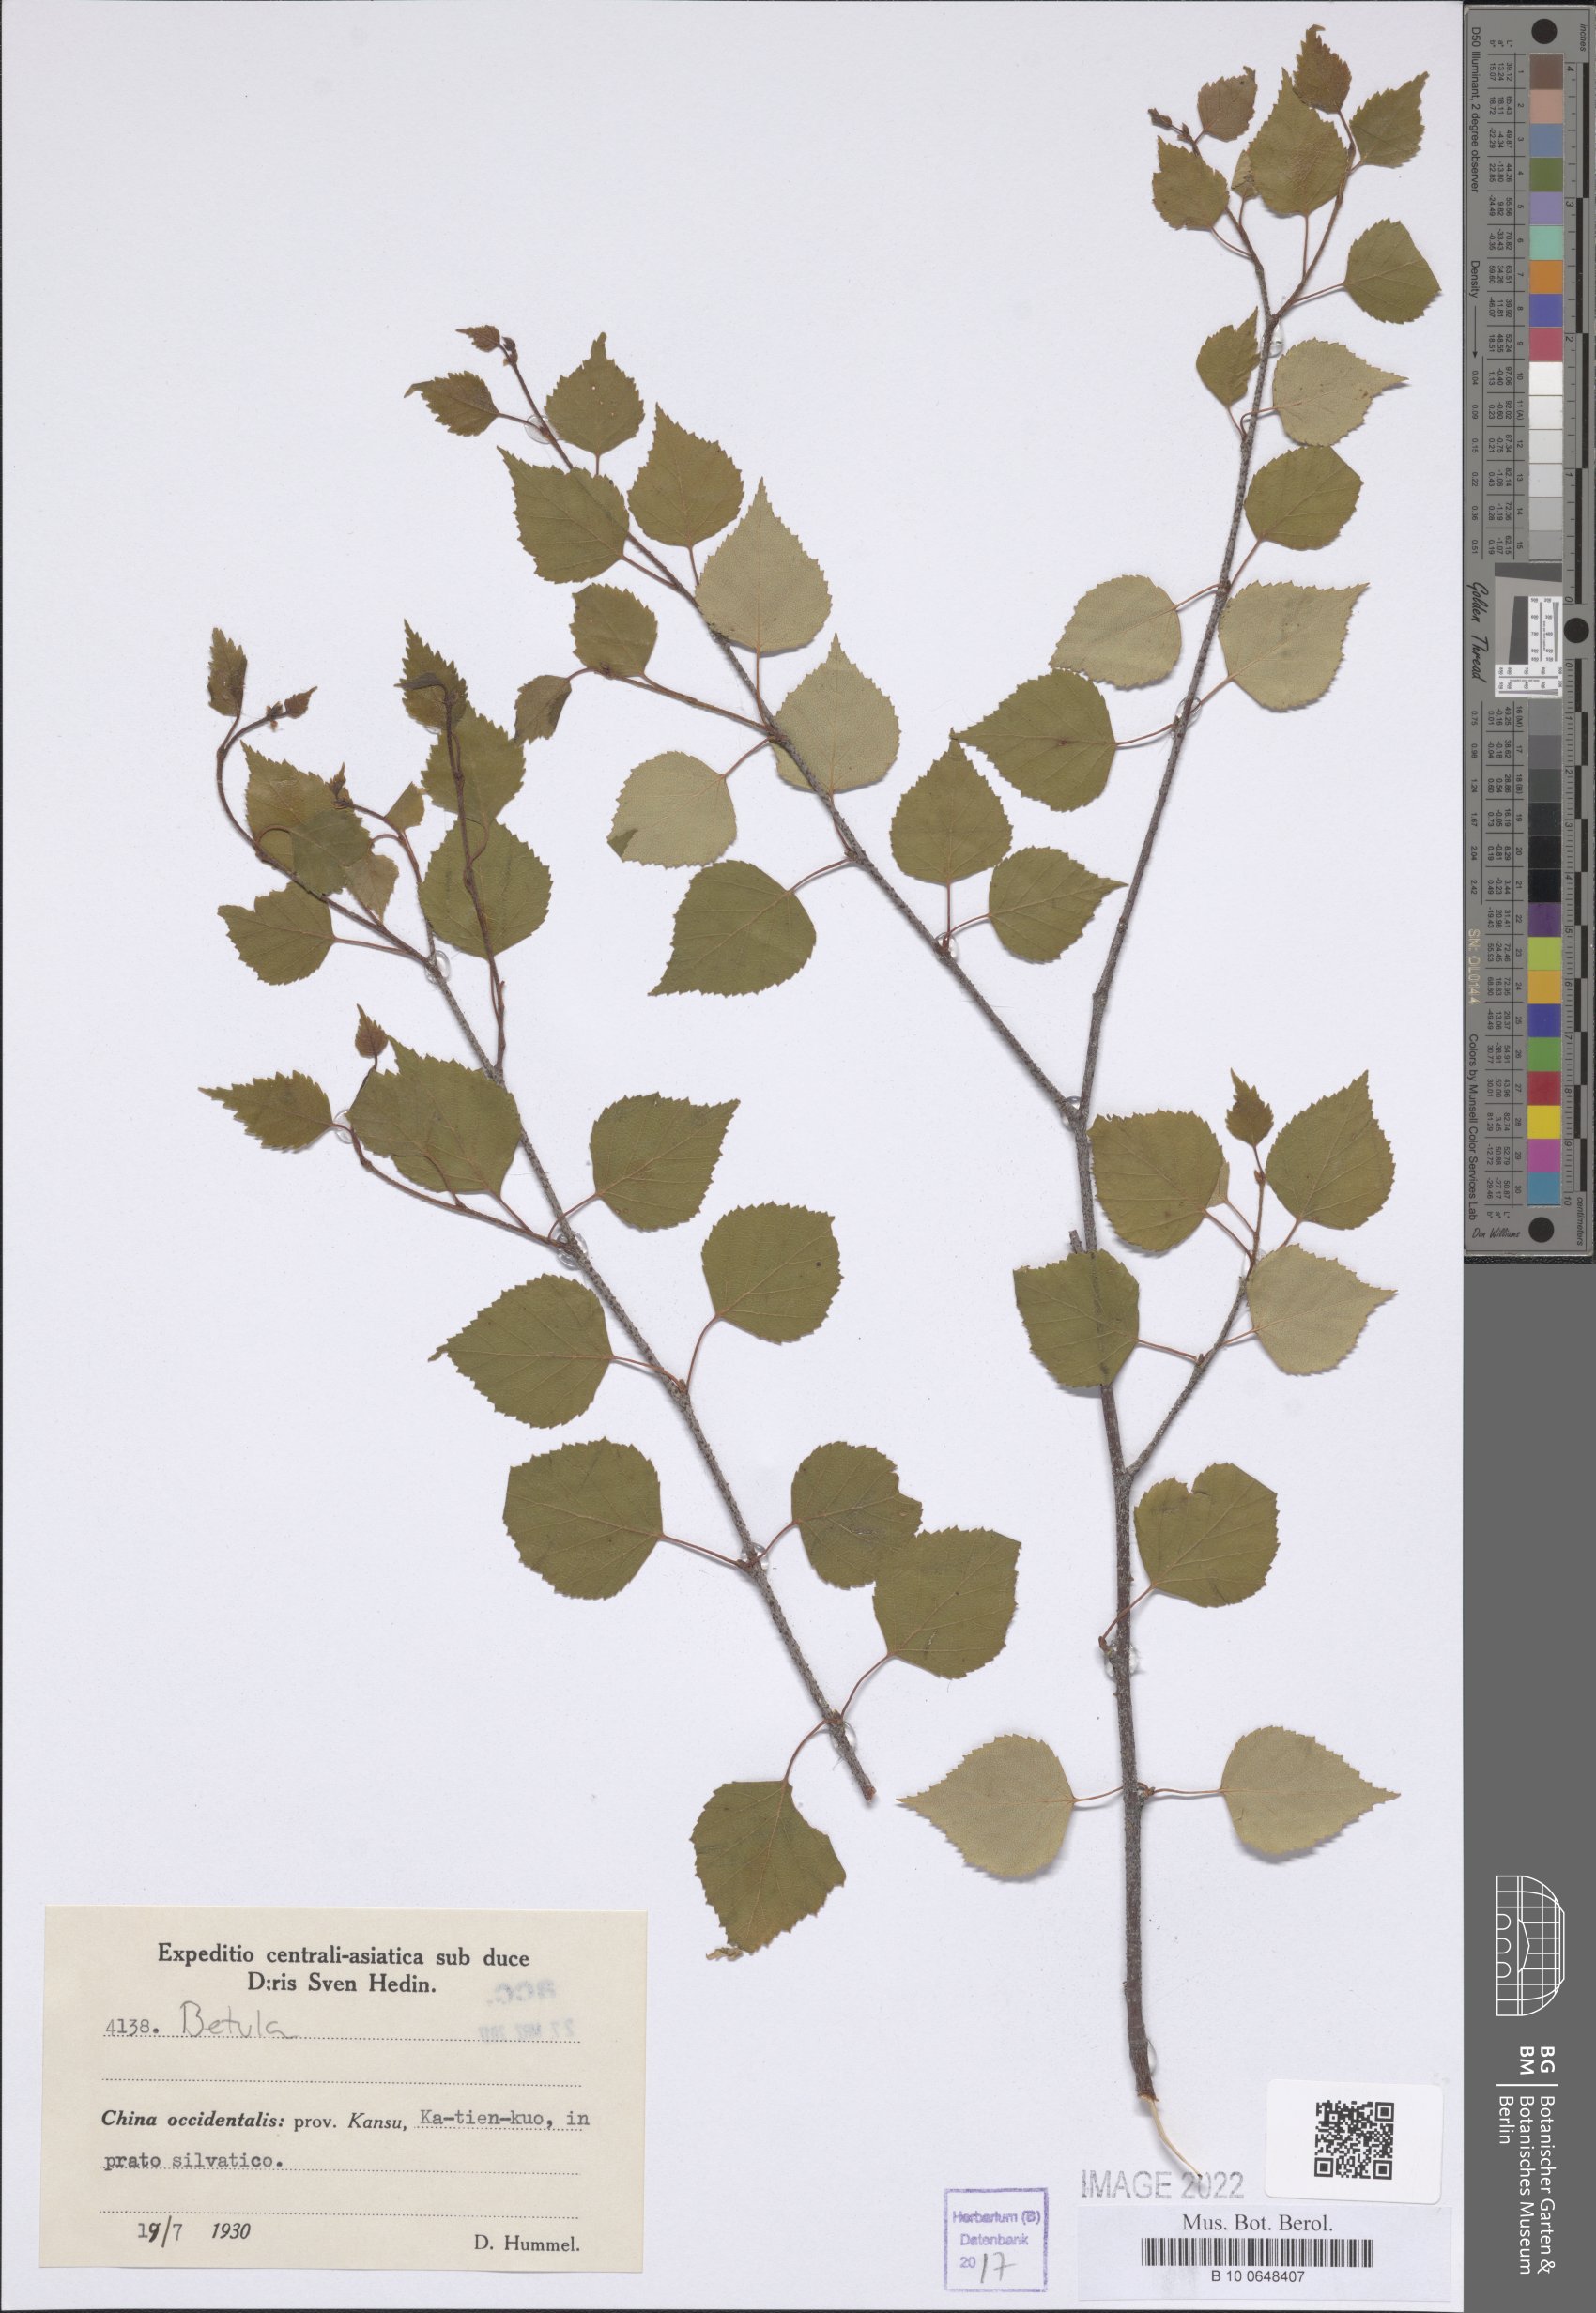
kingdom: Plantae
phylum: Tracheophyta
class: Magnoliopsida
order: Fagales
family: Betulaceae
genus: Betula
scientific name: Betula
